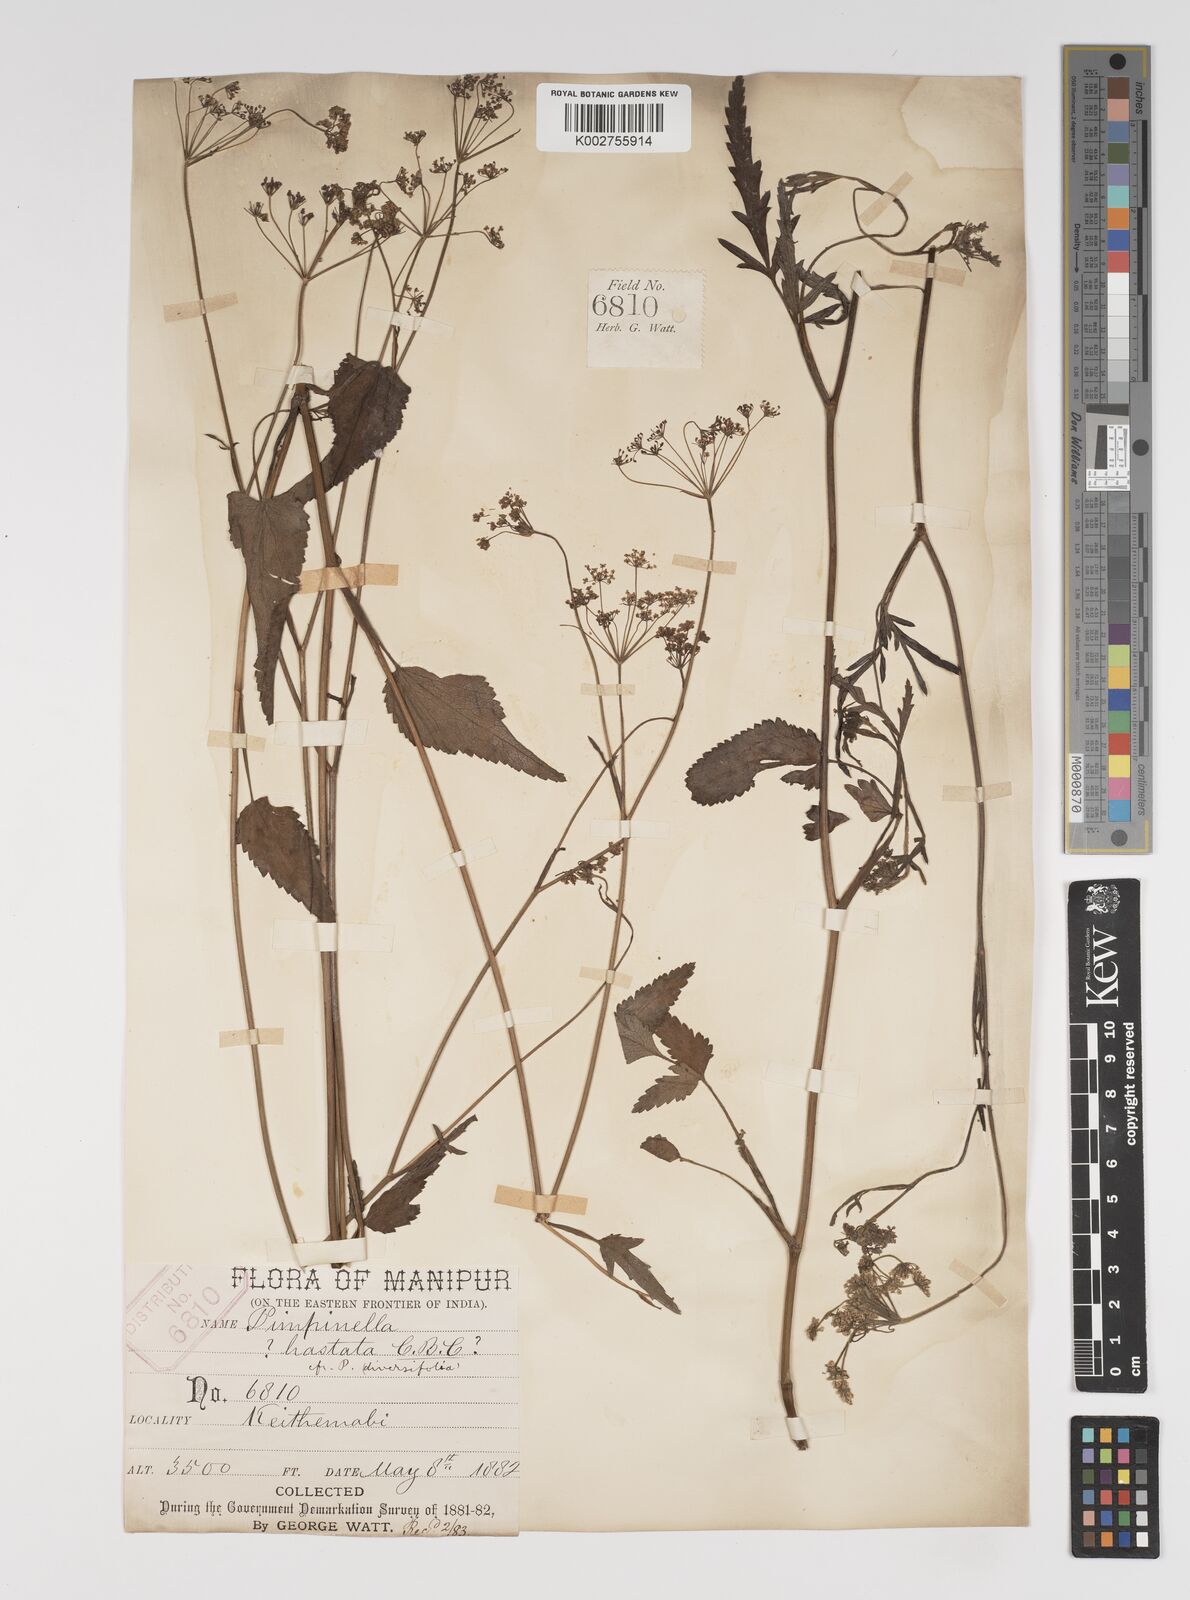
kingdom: Plantae
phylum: Tracheophyta
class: Magnoliopsida
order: Apiales
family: Apiaceae
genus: Pimpinella
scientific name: Pimpinella hastata
